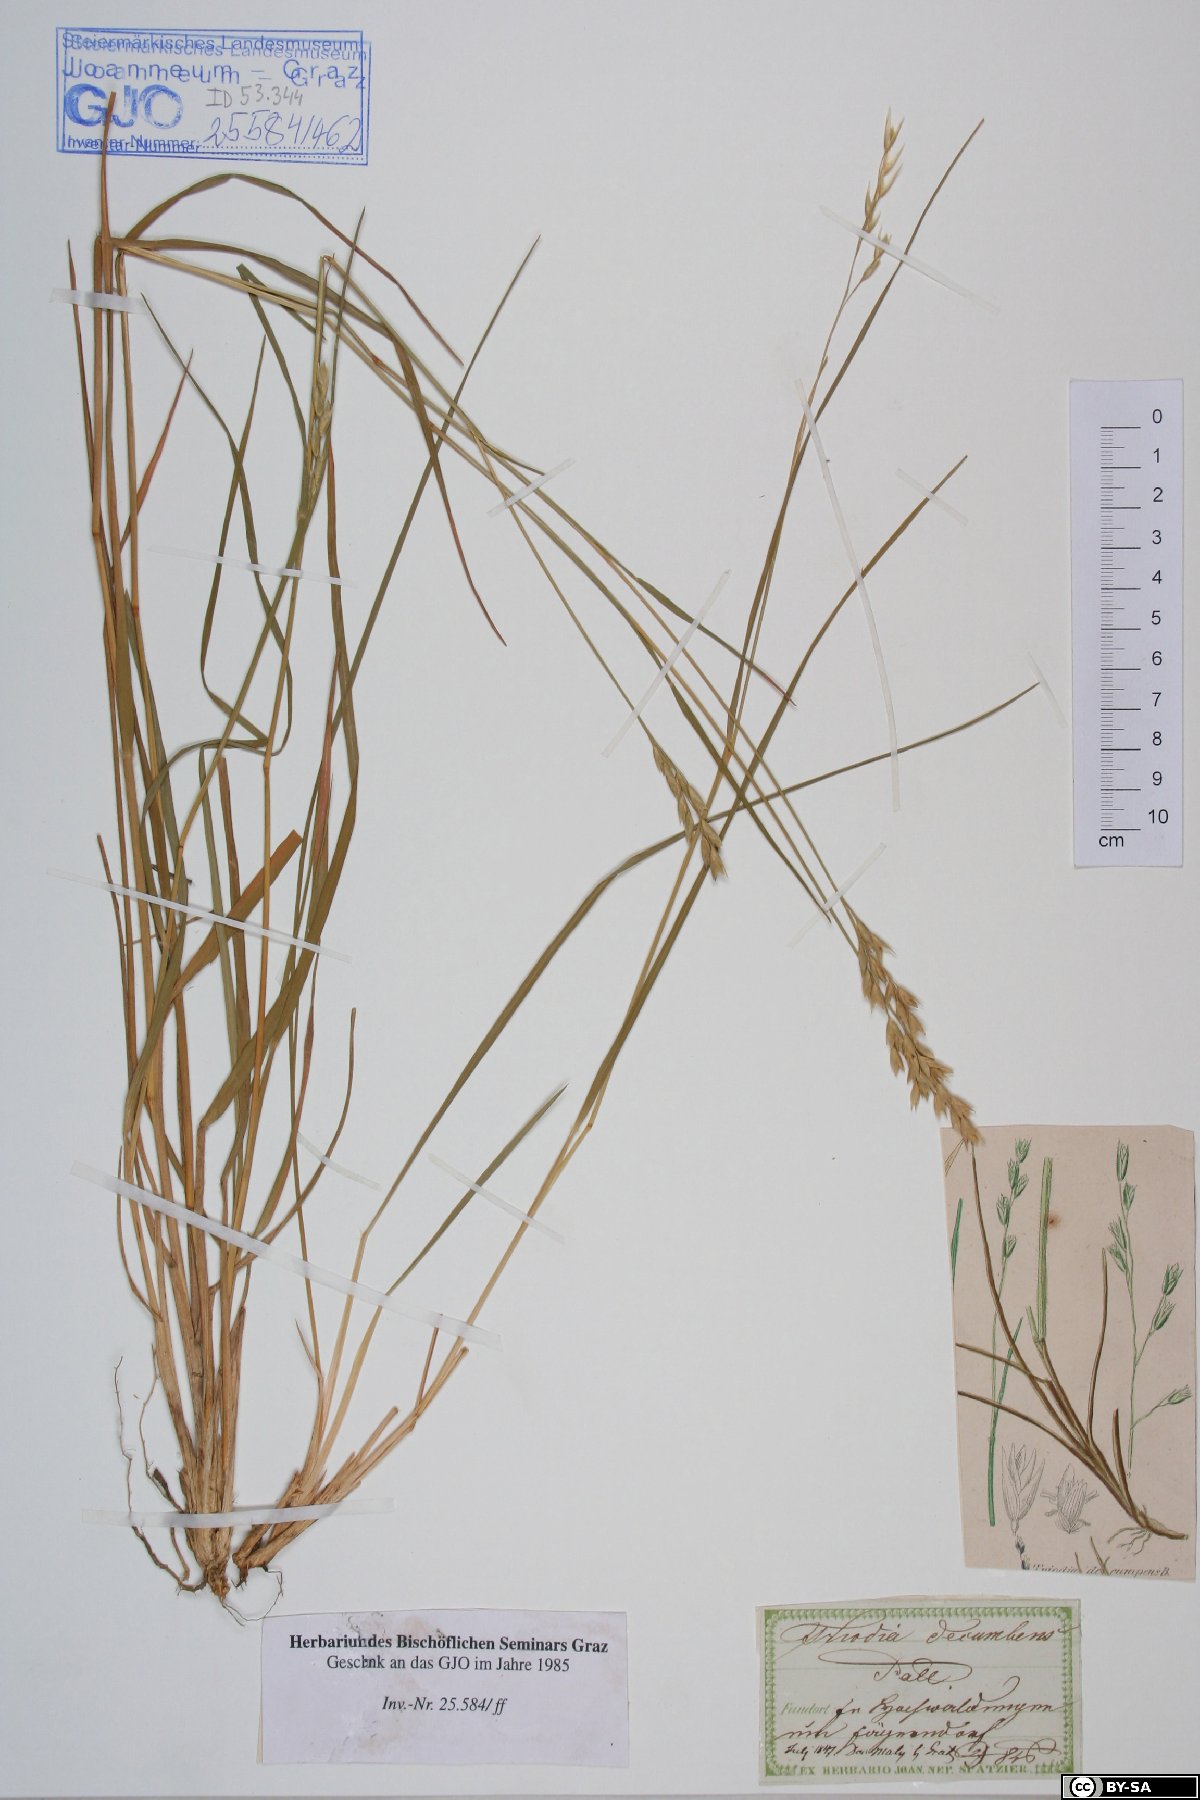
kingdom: Plantae
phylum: Tracheophyta
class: Liliopsida
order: Poales
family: Poaceae
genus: Danthonia
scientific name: Danthonia decumbens
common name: Common heathgrass
